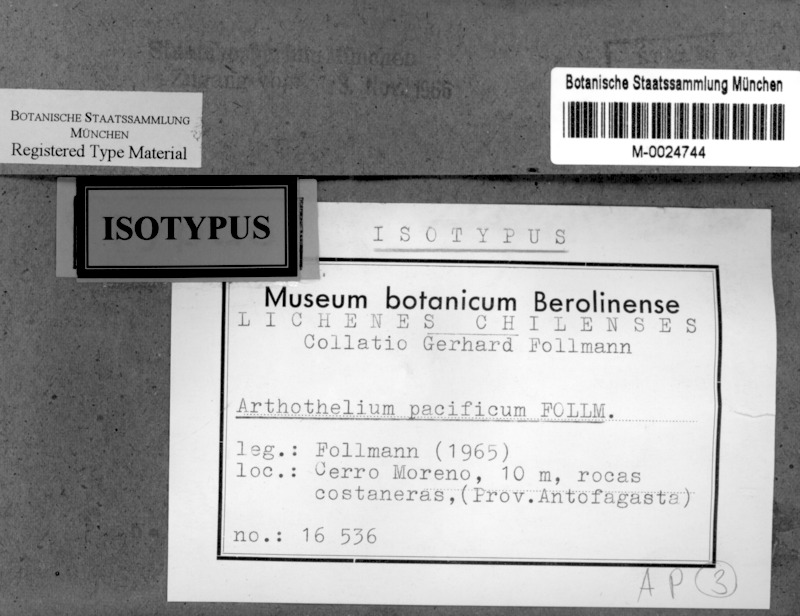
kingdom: Fungi
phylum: Ascomycota
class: Arthoniomycetes
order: Arthoniales
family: Arthoniaceae
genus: Arthothelium
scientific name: Arthothelium
